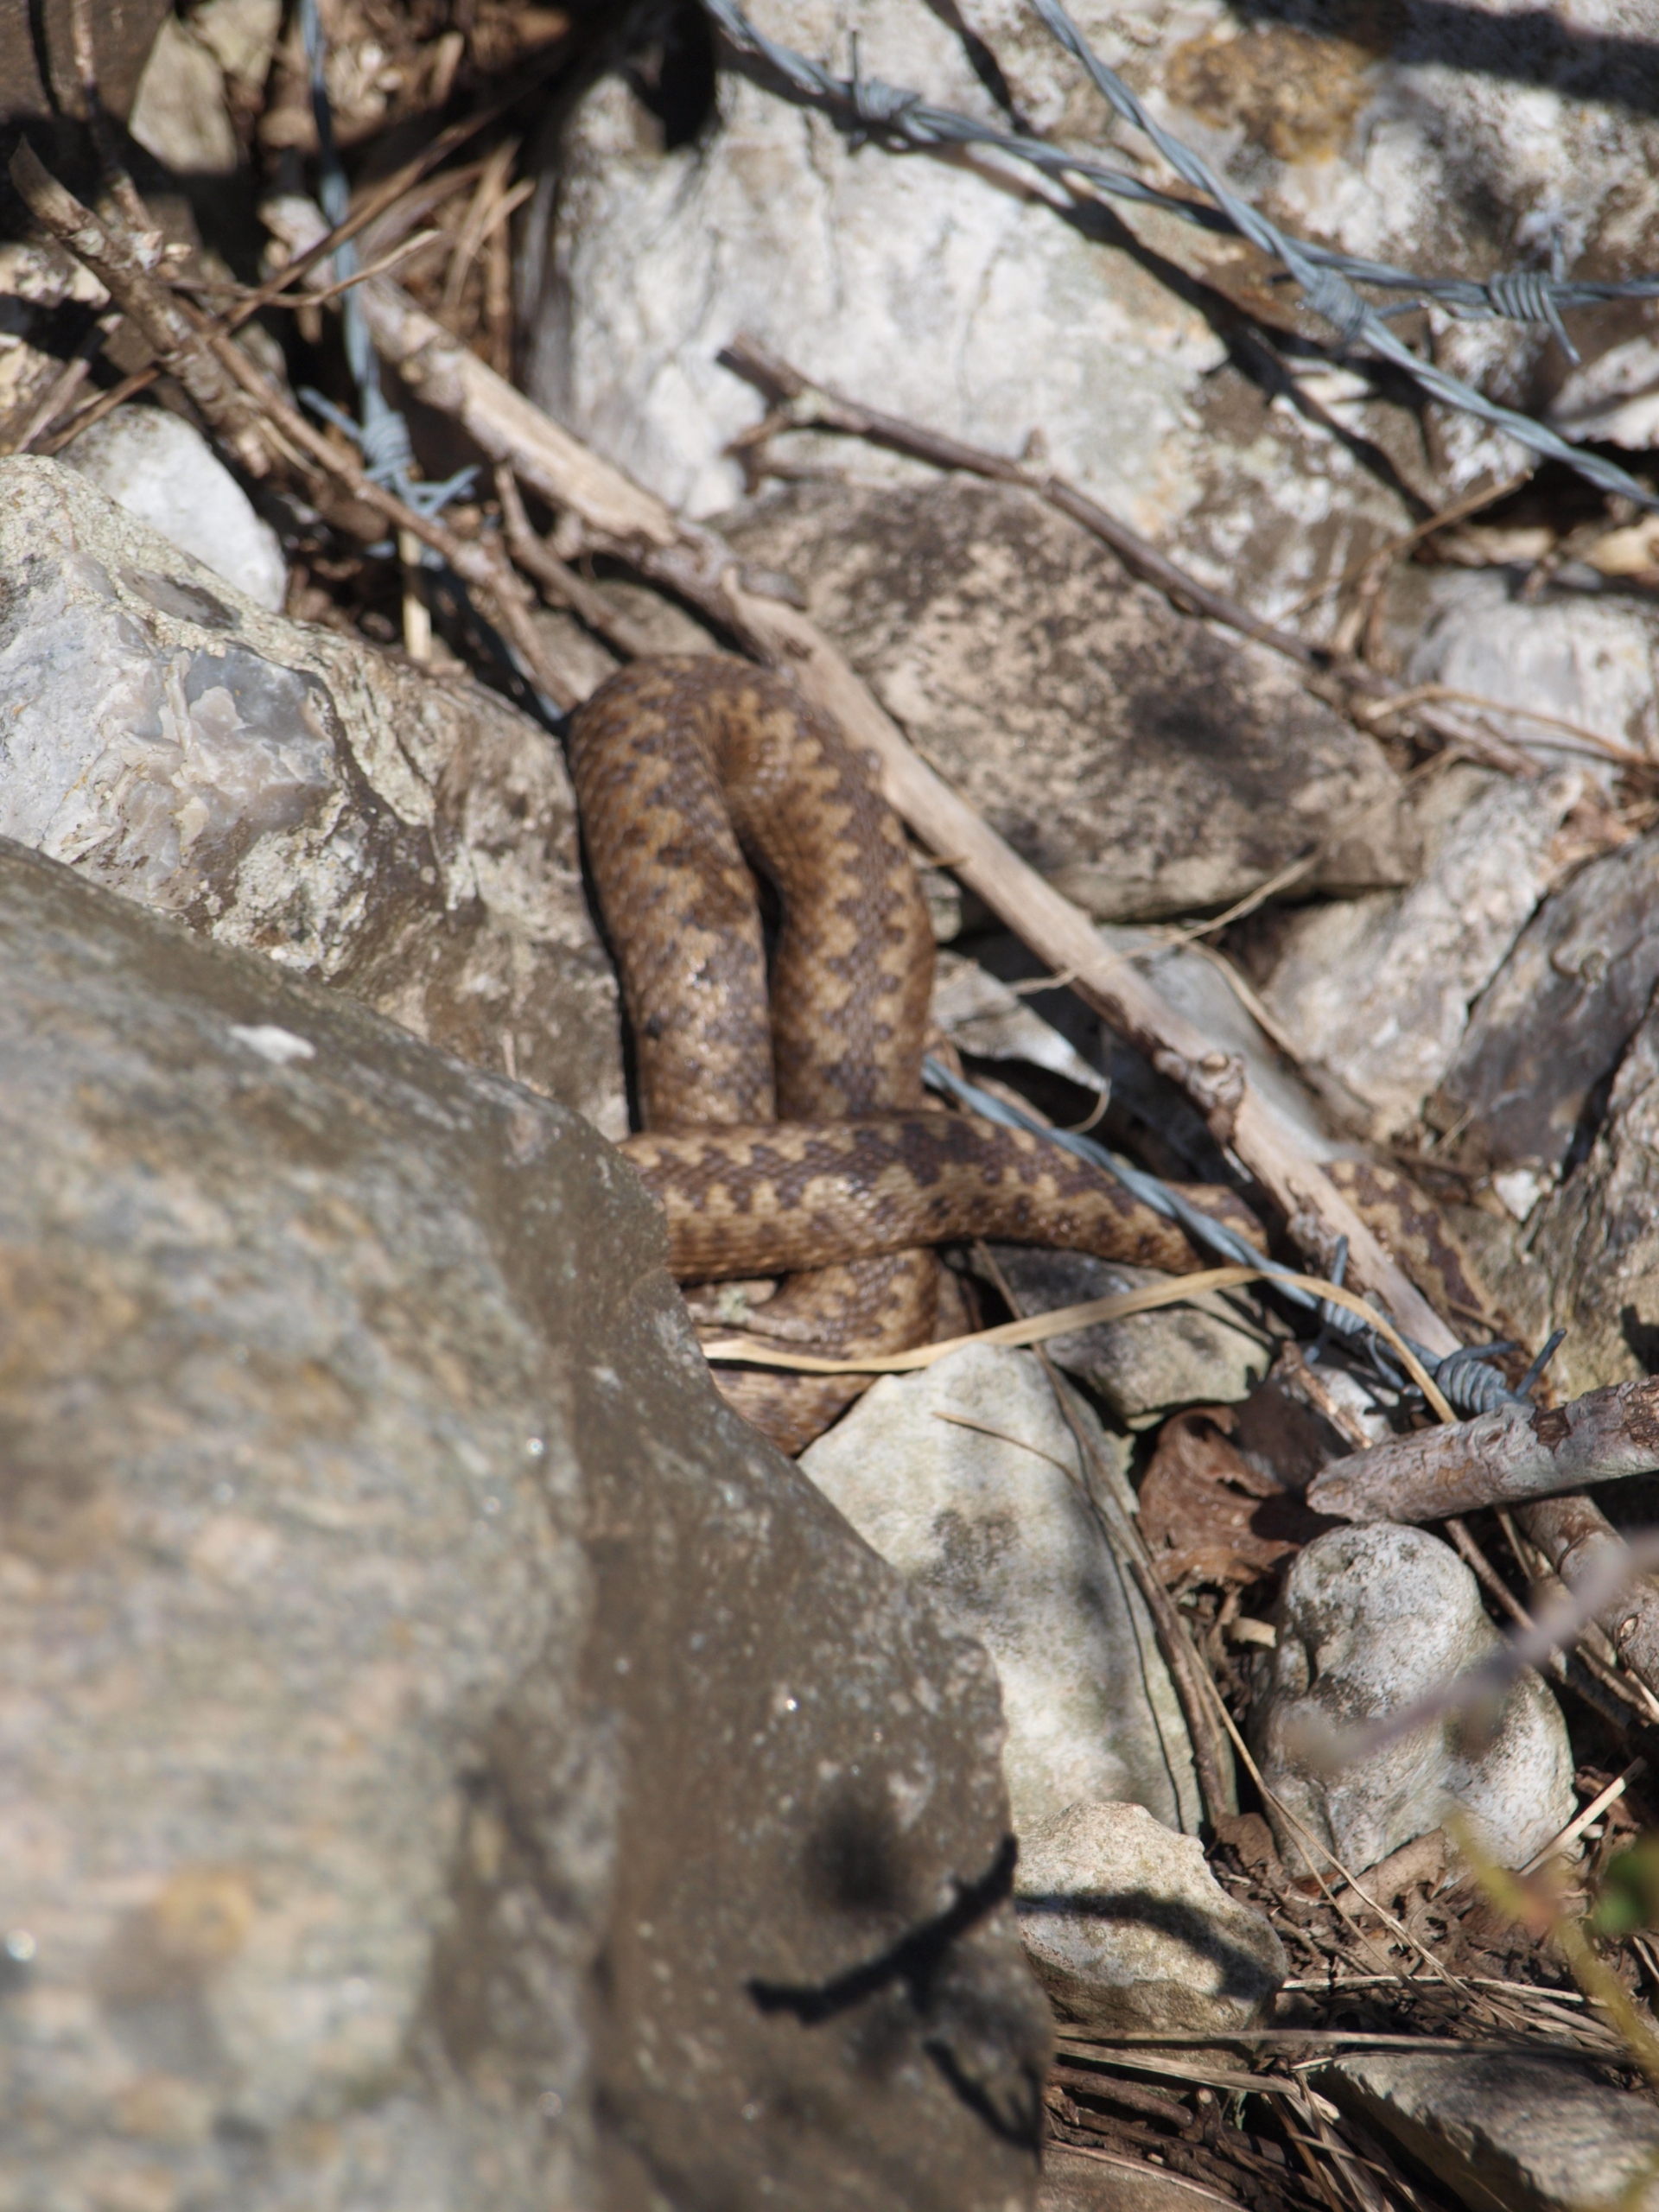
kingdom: Animalia
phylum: Chordata
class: Squamata
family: Viperidae
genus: Vipera
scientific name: Vipera berus
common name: Hugorm
